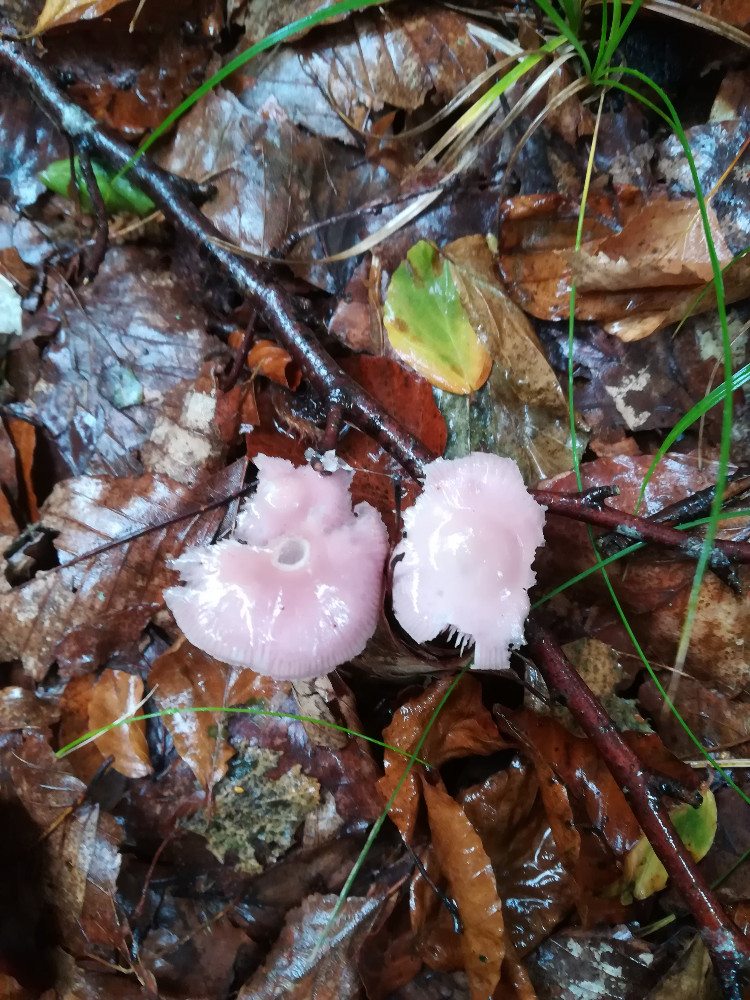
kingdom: Fungi
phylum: Basidiomycota
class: Agaricomycetes
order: Agaricales
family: Mycenaceae
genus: Mycena
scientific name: Mycena rosea
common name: rosa huesvamp
